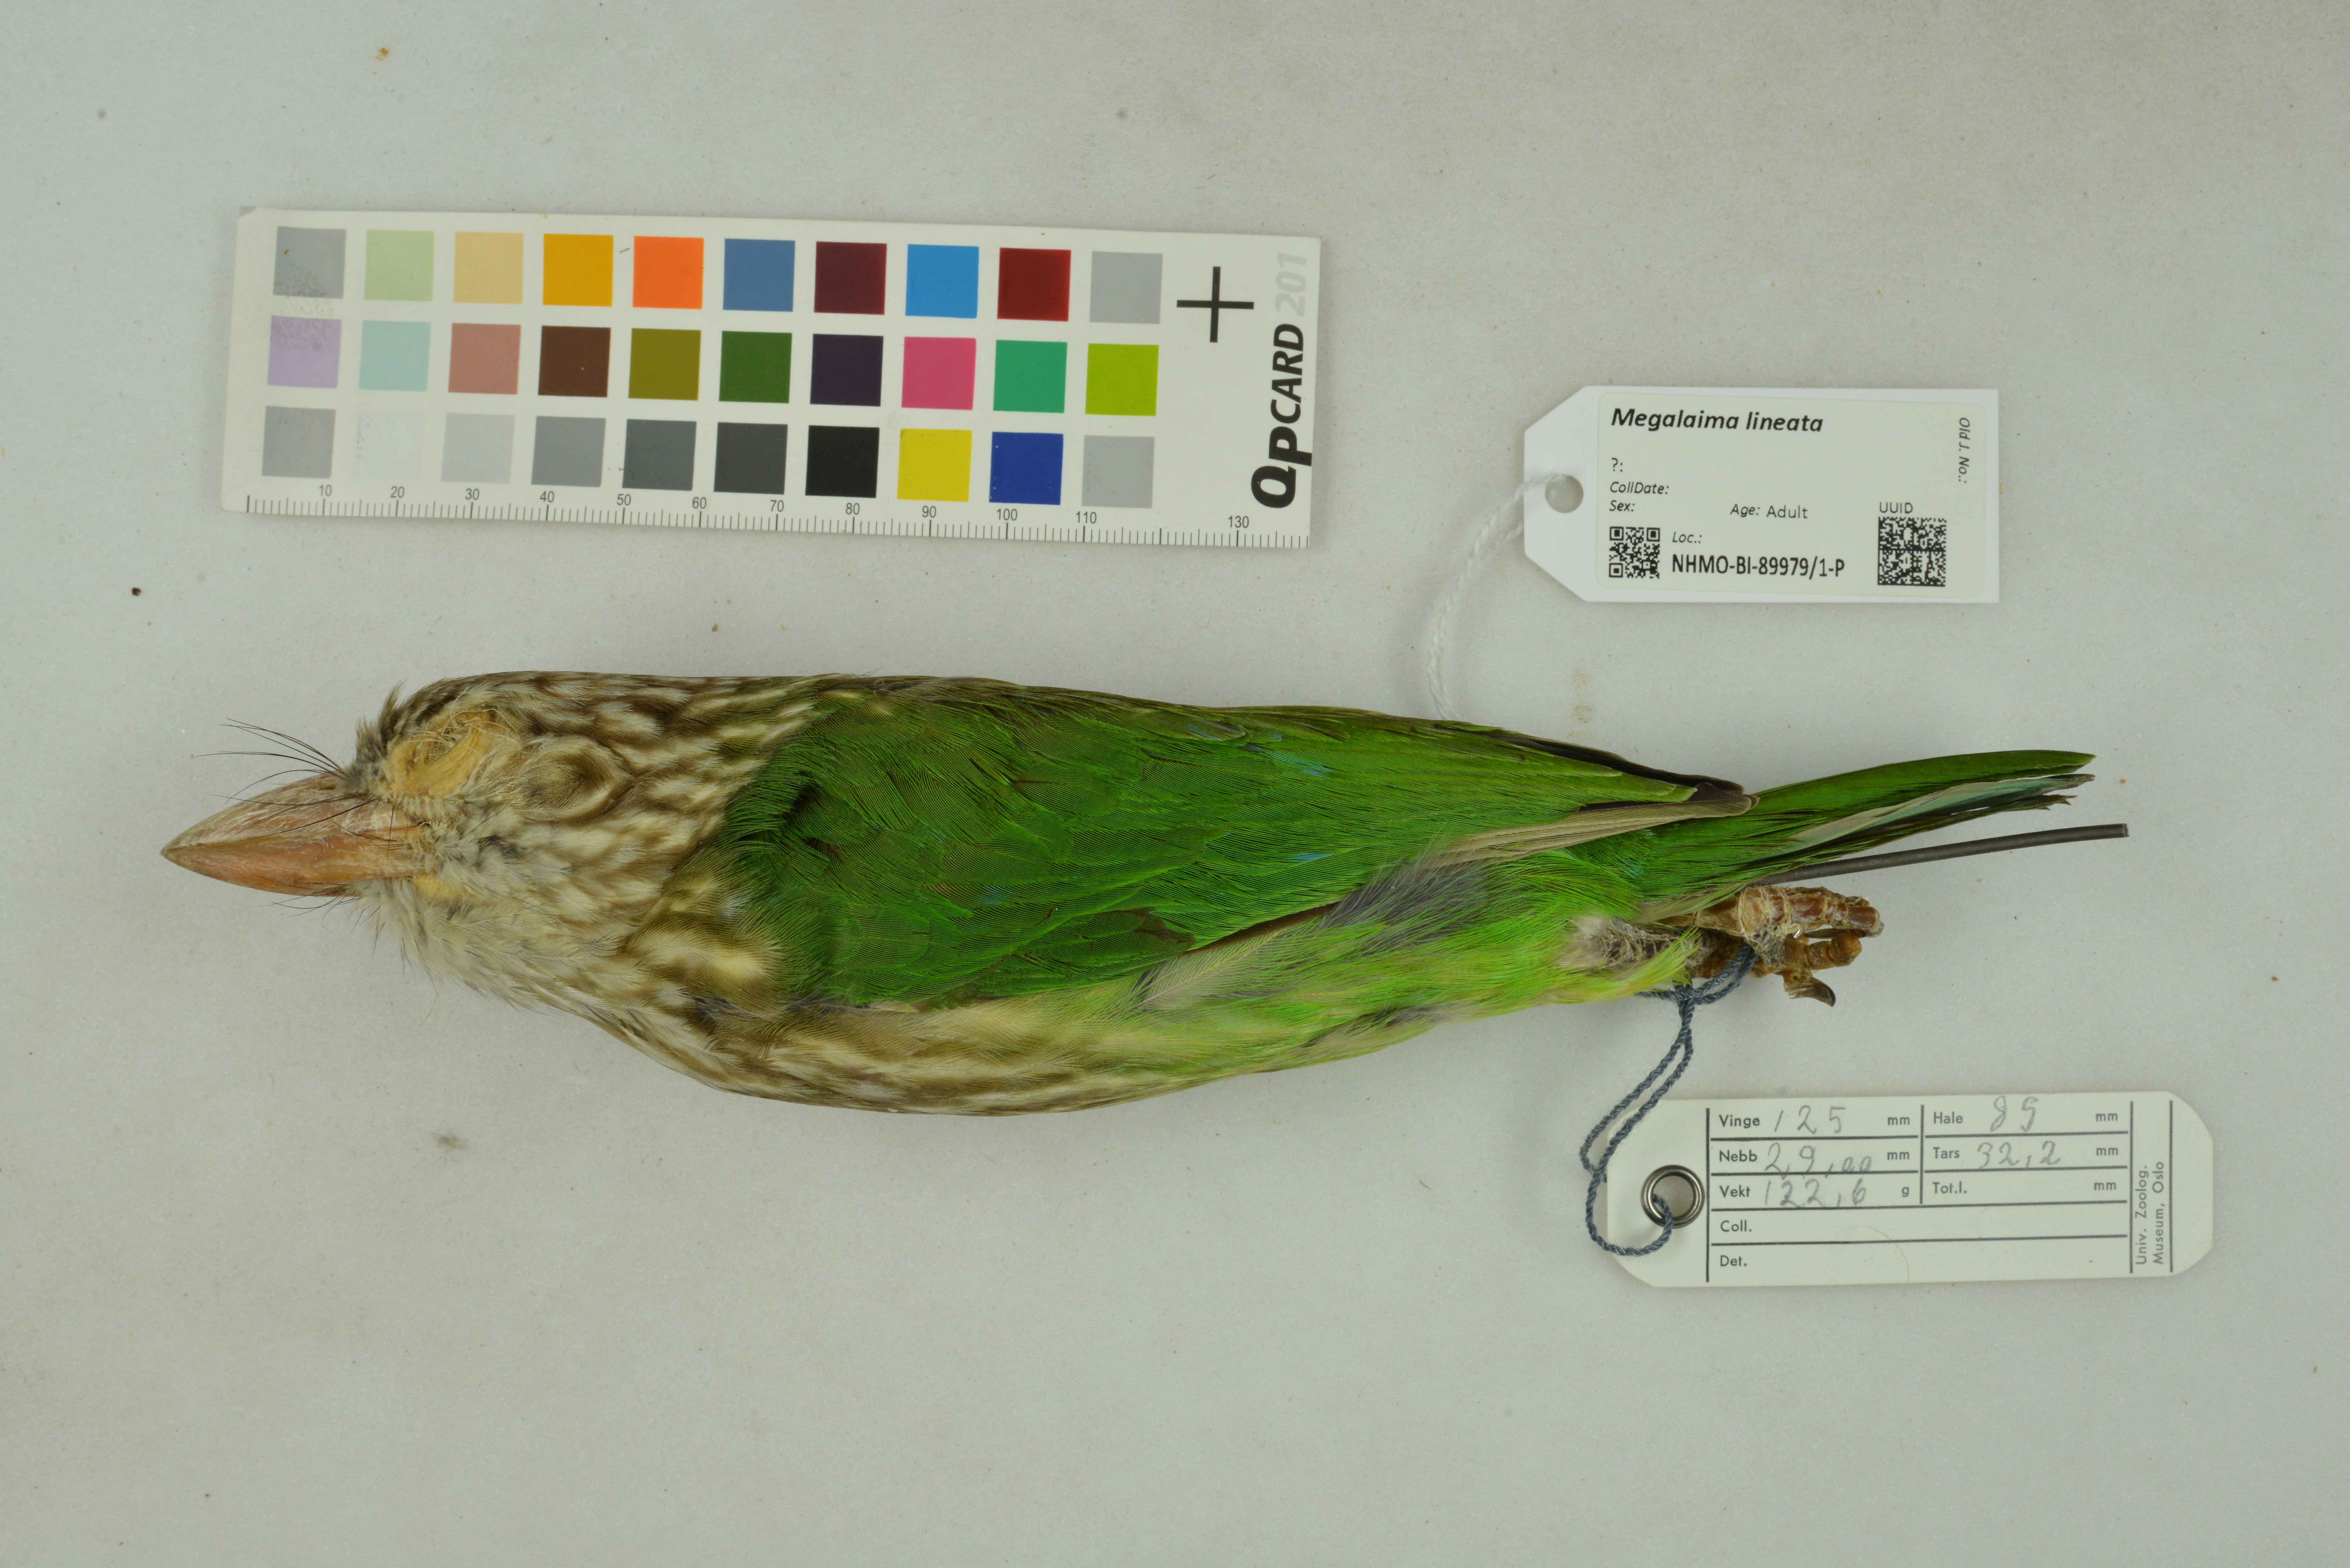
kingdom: Animalia
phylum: Chordata
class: Aves
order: Piciformes
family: Megalaimidae
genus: Psilopogon
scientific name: Psilopogon lineatus
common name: Lineated barbet
